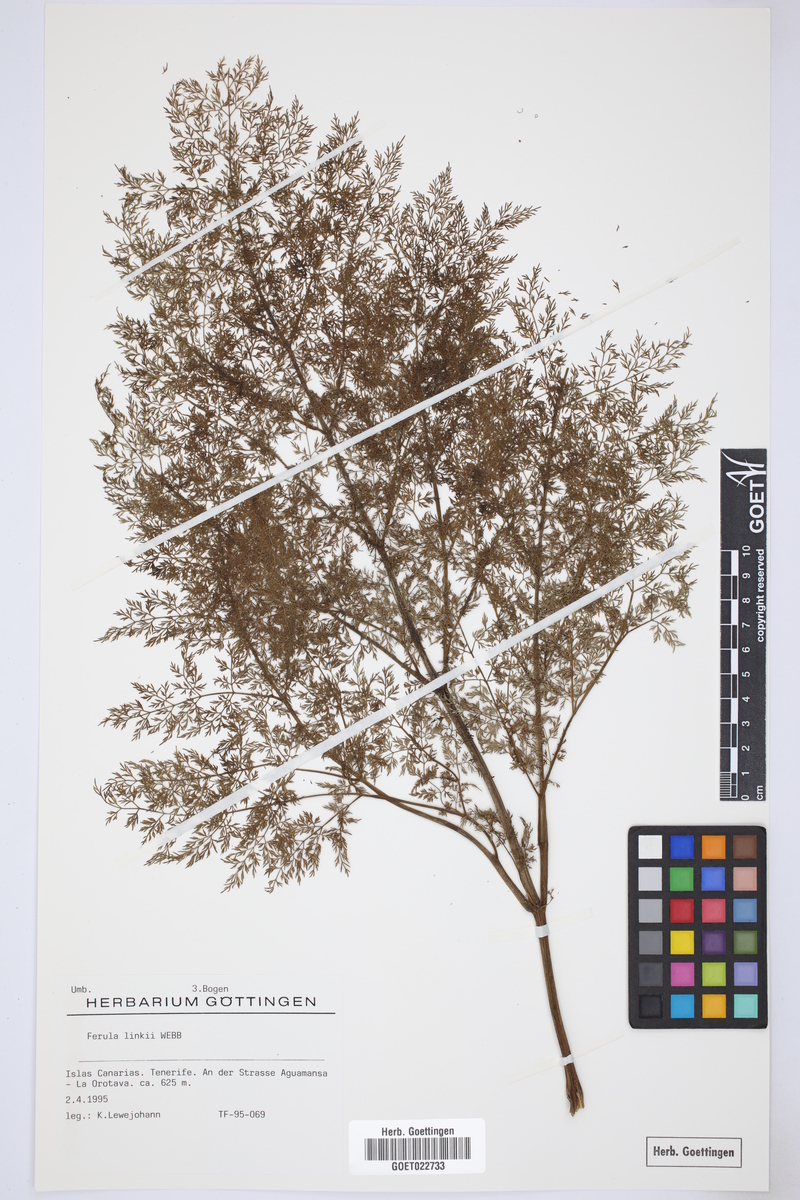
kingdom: Plantae
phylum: Tracheophyta
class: Magnoliopsida
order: Apiales
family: Apiaceae
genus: Ferula
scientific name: Ferula communis
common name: Giant fennel
